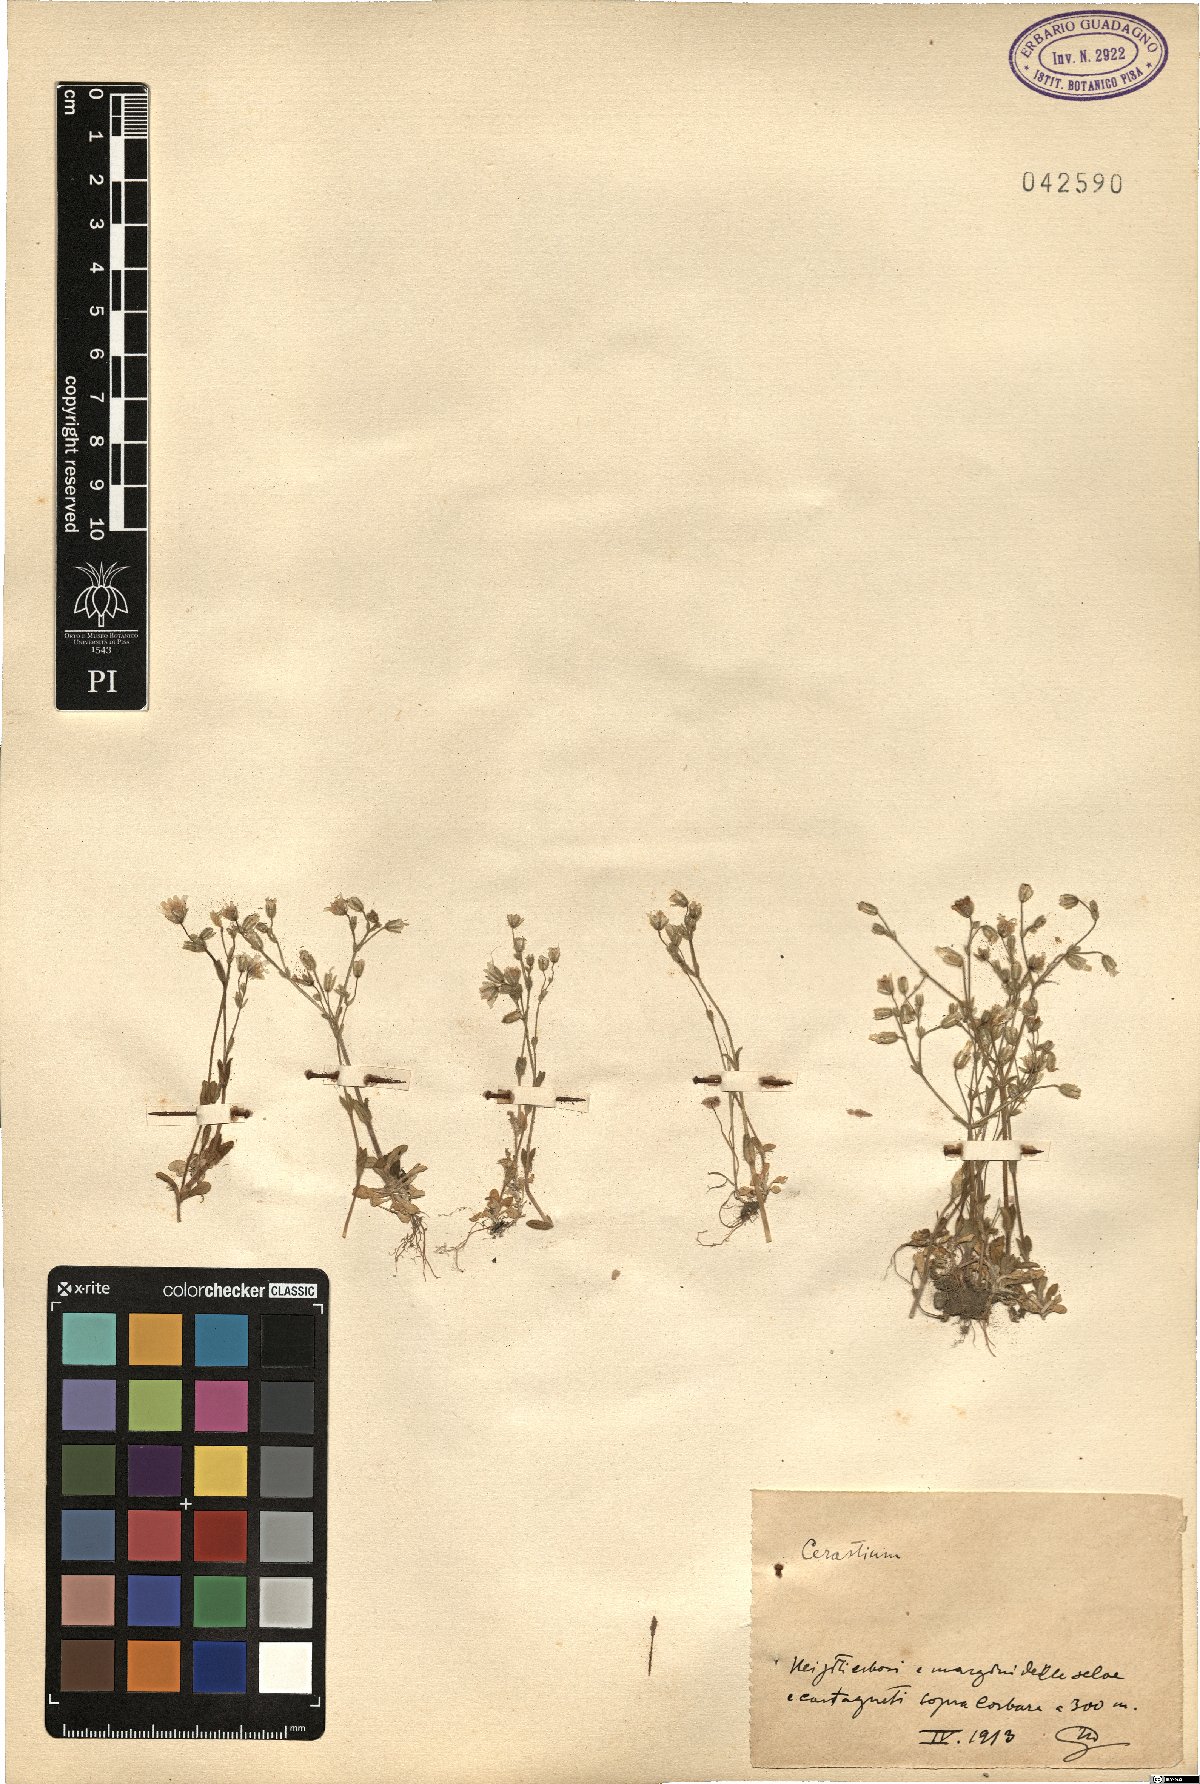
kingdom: Plantae
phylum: Tracheophyta
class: Magnoliopsida
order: Caryophyllales
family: Caryophyllaceae
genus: Cerastium
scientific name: Cerastium
